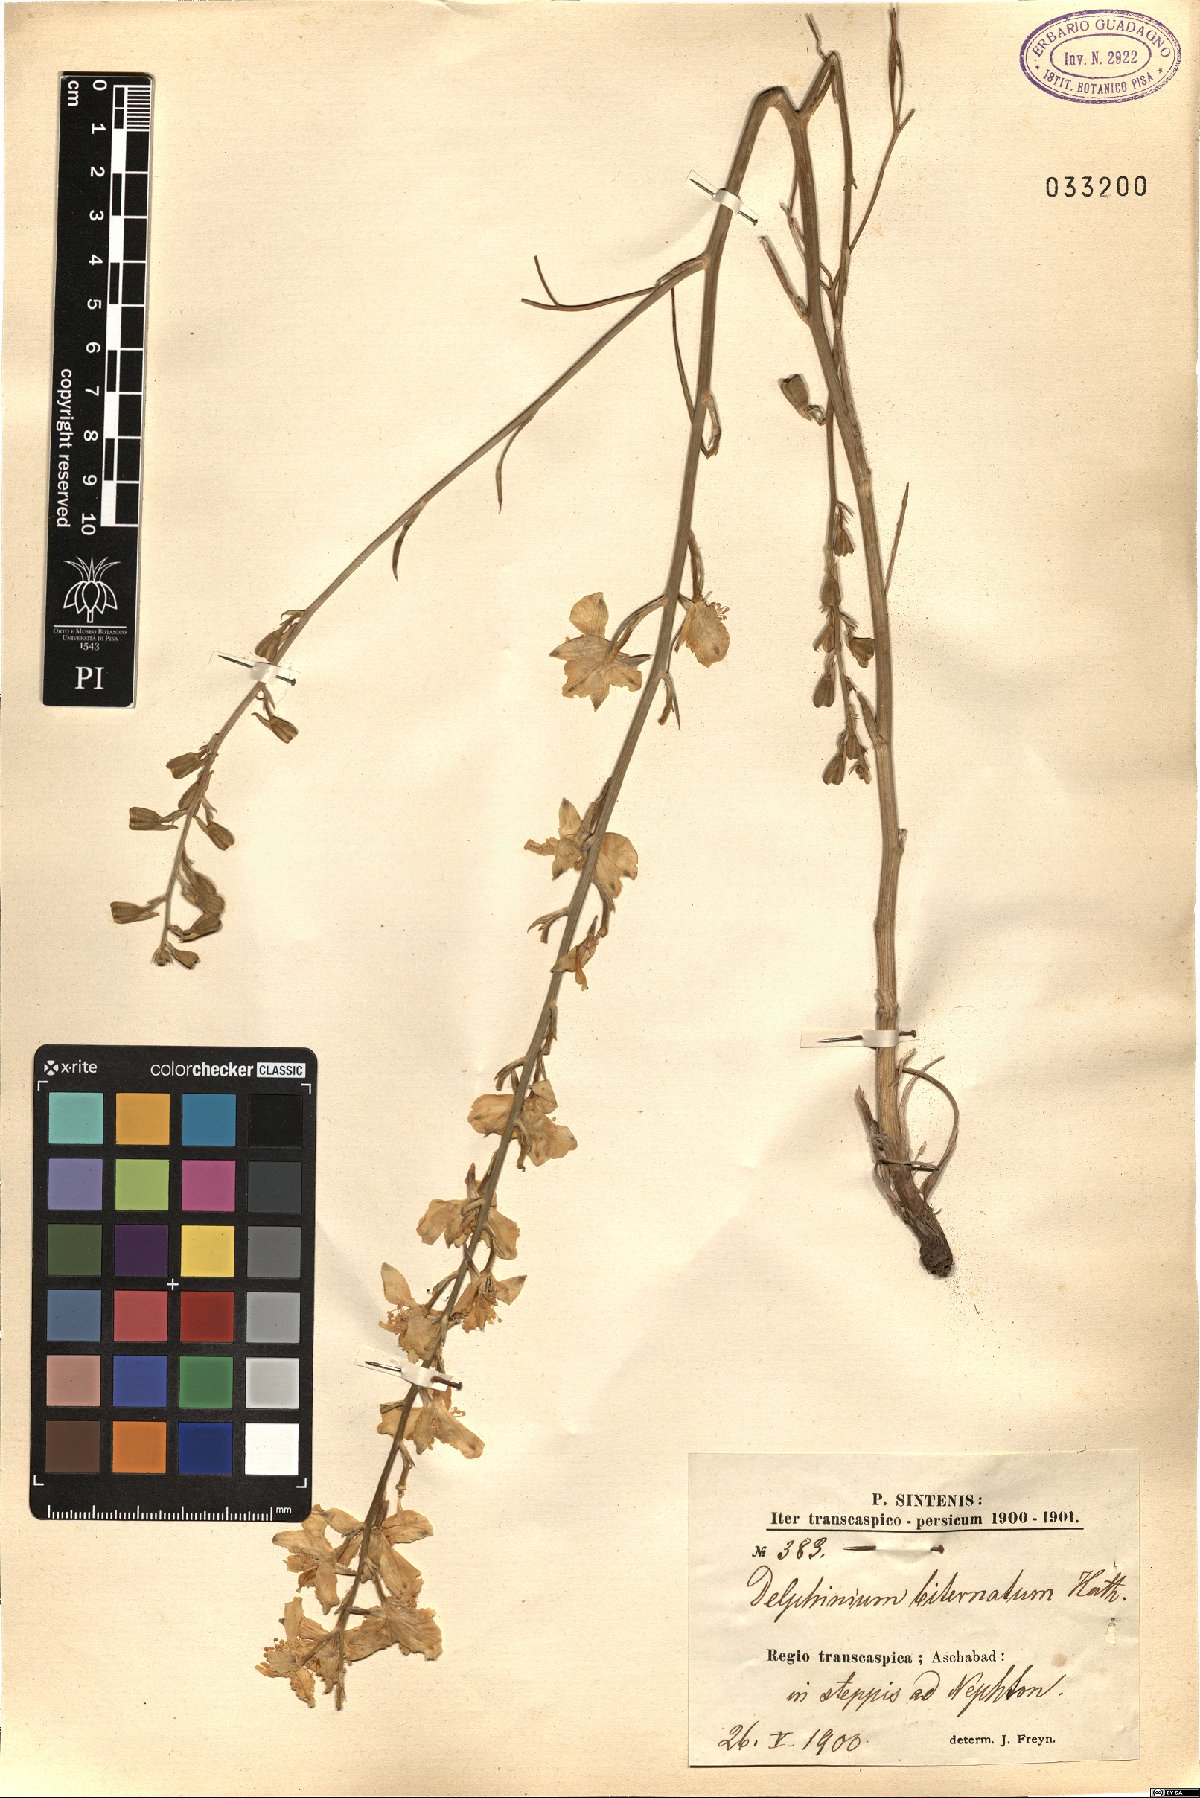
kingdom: Plantae
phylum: Tracheophyta
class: Magnoliopsida
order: Ranunculales
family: Ranunculaceae
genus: Delphinium
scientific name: Delphinium biternatum
